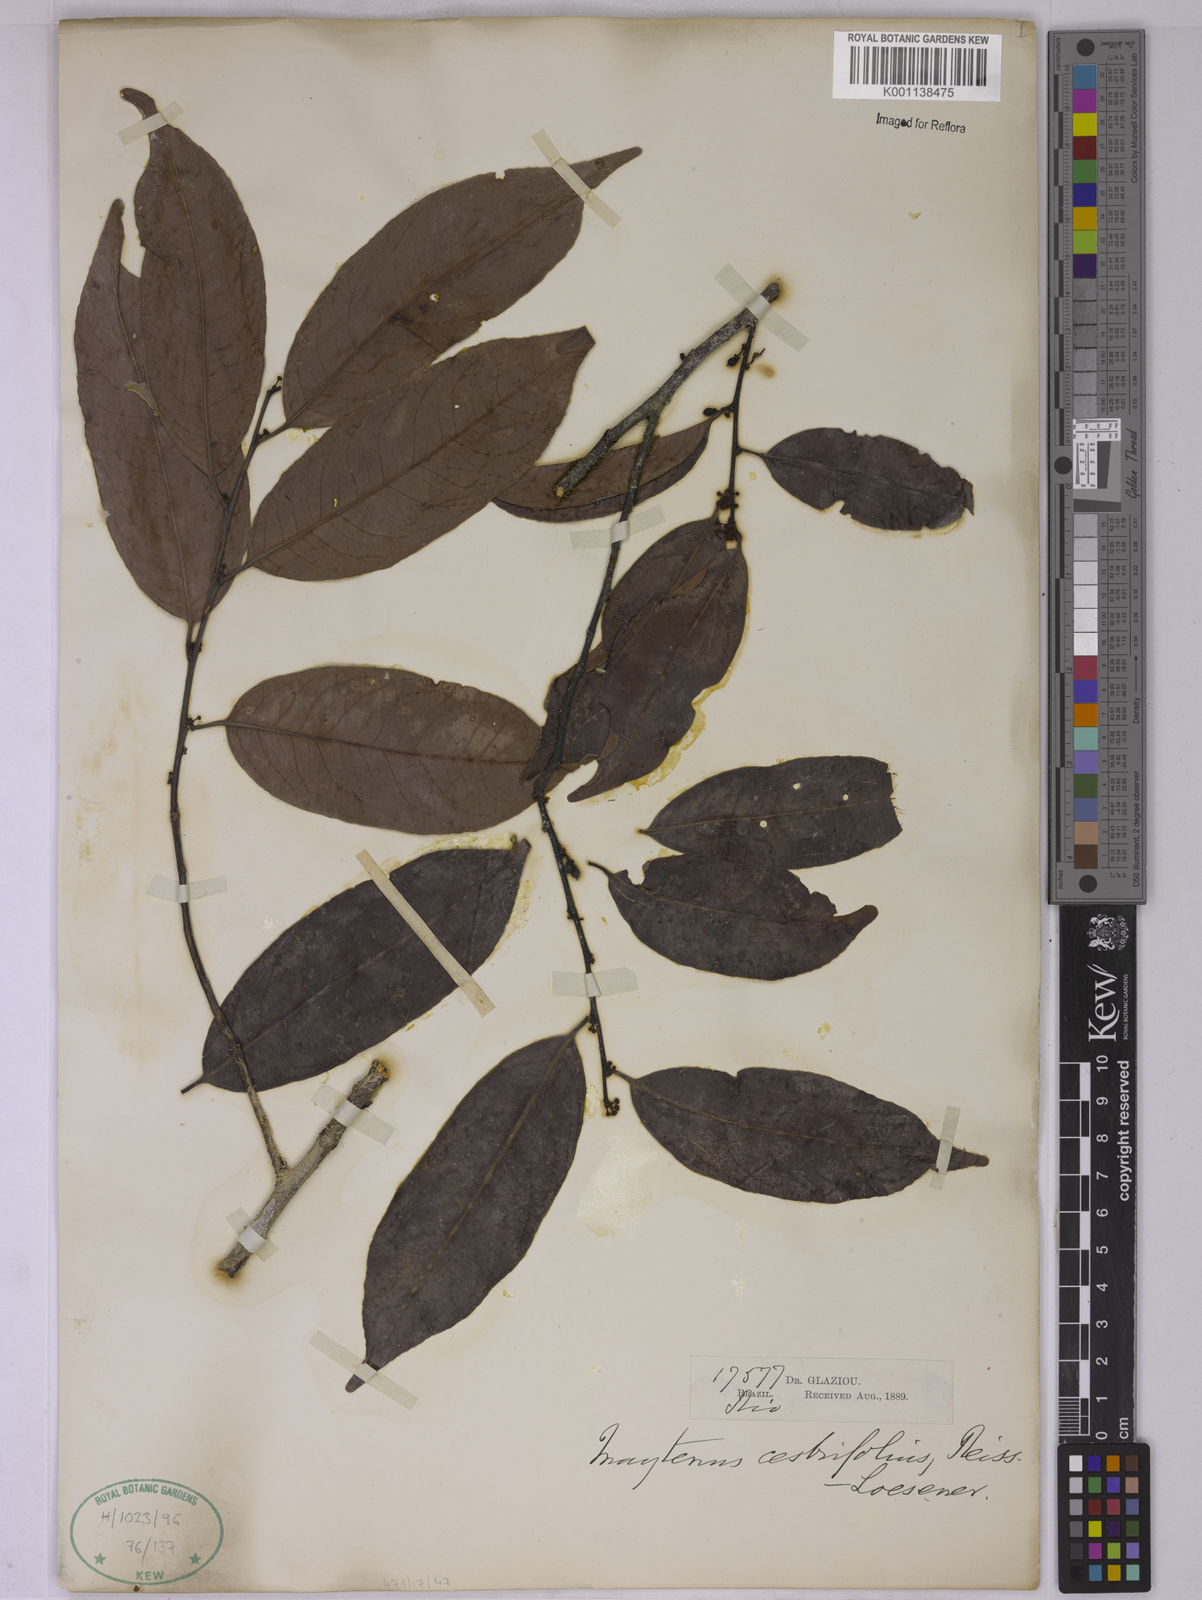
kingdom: Plantae
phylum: Tracheophyta
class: Magnoliopsida
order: Celastrales
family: Celastraceae
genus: Monteverdia
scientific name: Monteverdia cestrifolia
